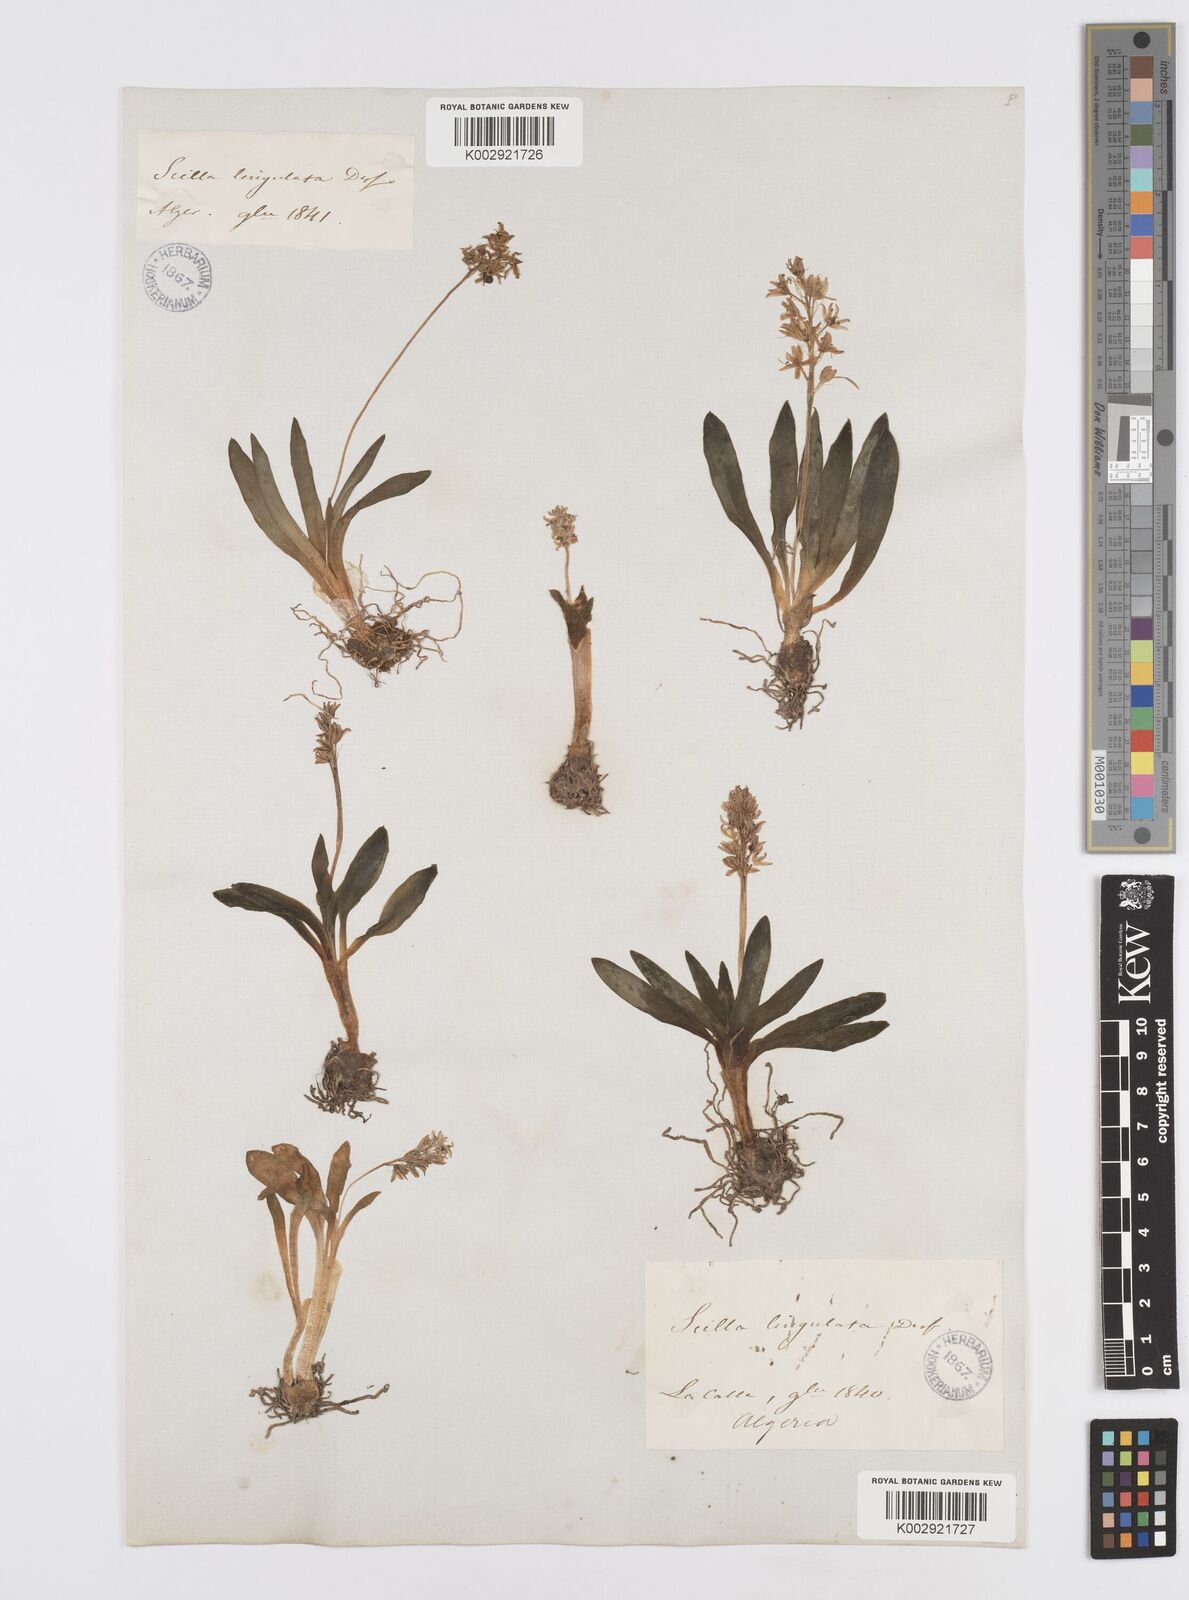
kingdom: Plantae
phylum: Tracheophyta
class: Liliopsida
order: Asparagales
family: Asparagaceae
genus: Hyacinthoides
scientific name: Hyacinthoides lingulata
